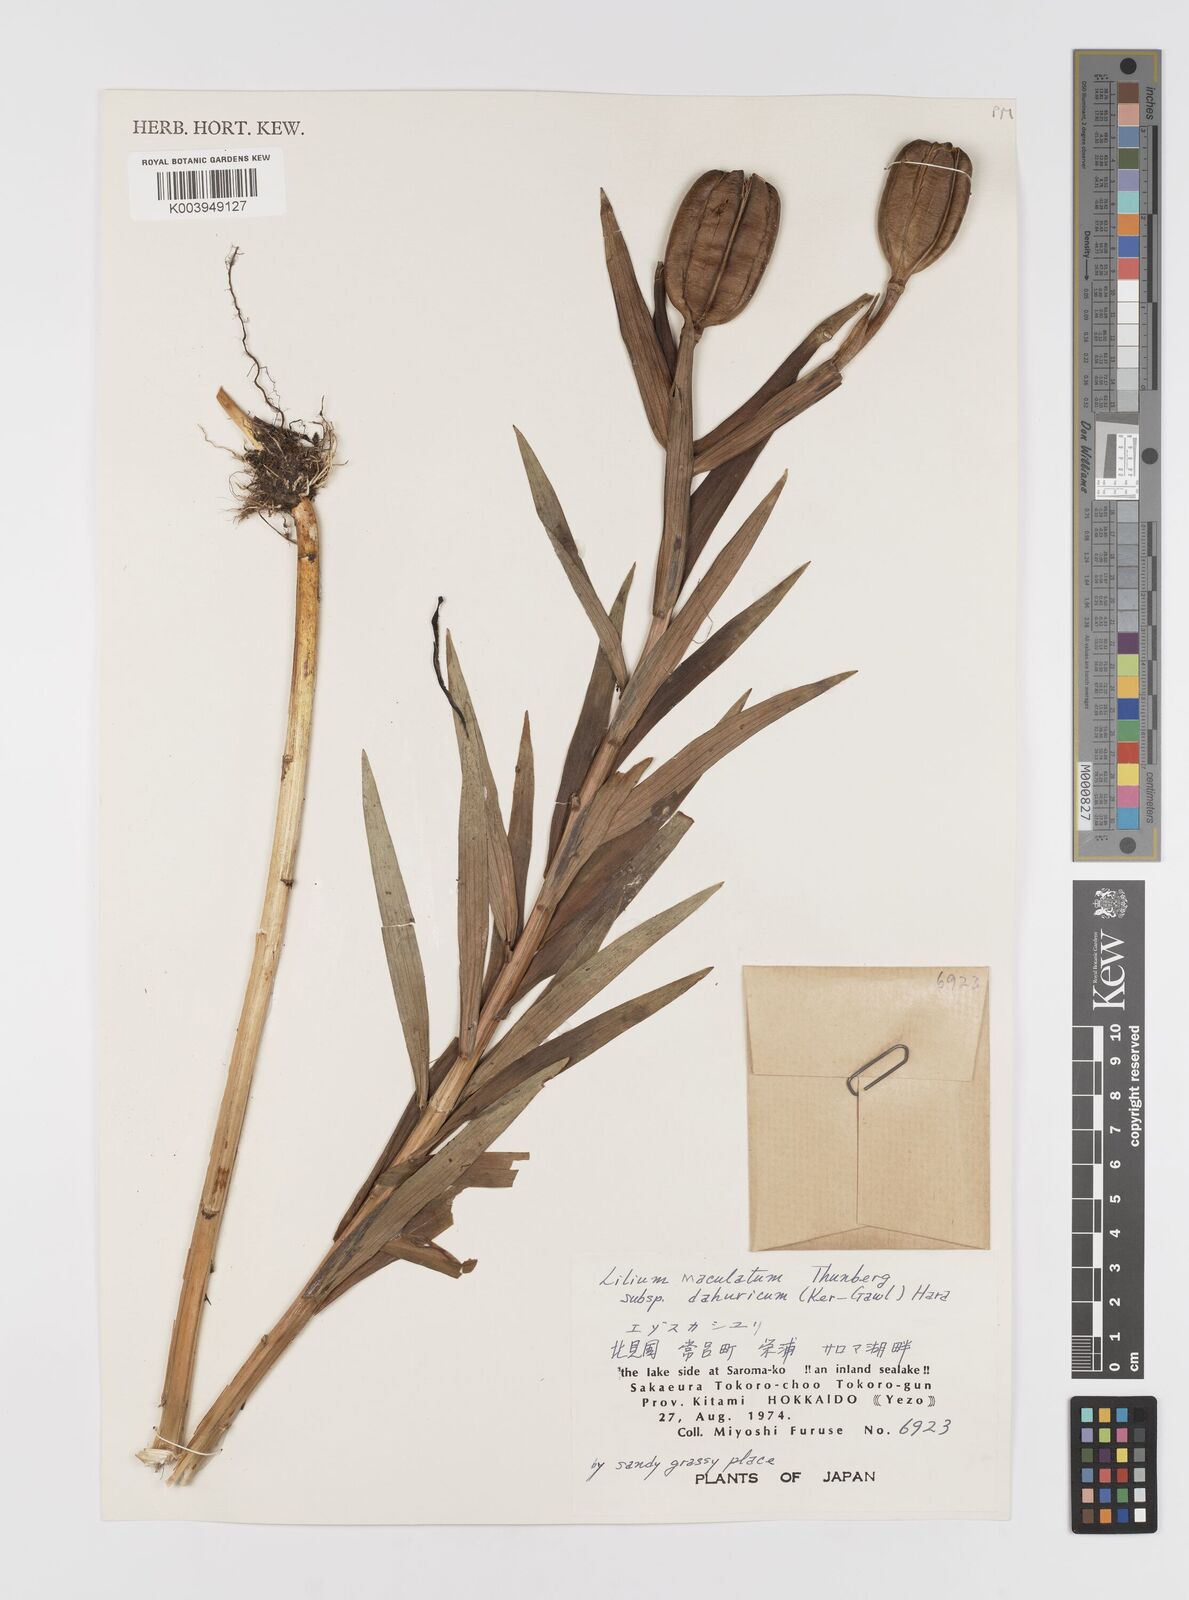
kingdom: Plantae
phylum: Tracheophyta
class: Liliopsida
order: Liliales
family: Liliaceae
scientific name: Liliaceae
